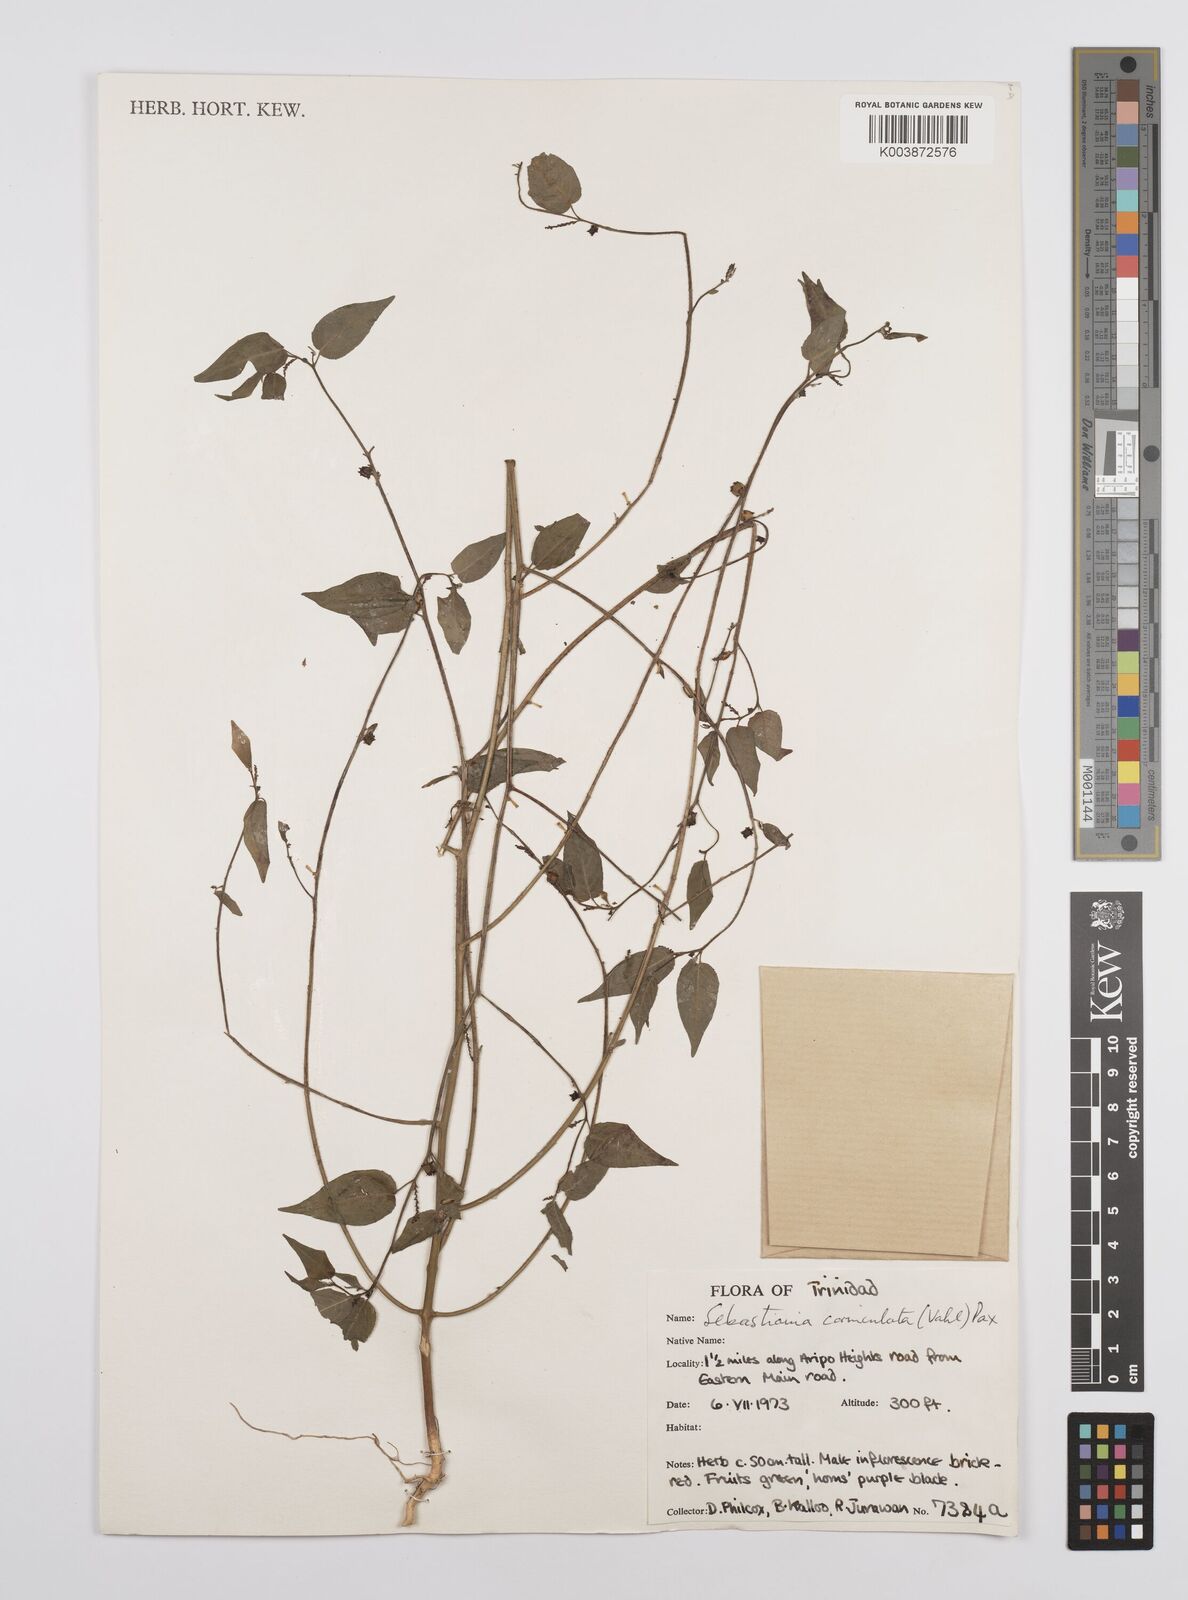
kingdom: Plantae
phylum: Tracheophyta
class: Magnoliopsida
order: Malpighiales
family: Euphorbiaceae
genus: Microstachys
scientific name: Microstachys corniculata
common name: Hato tejas
